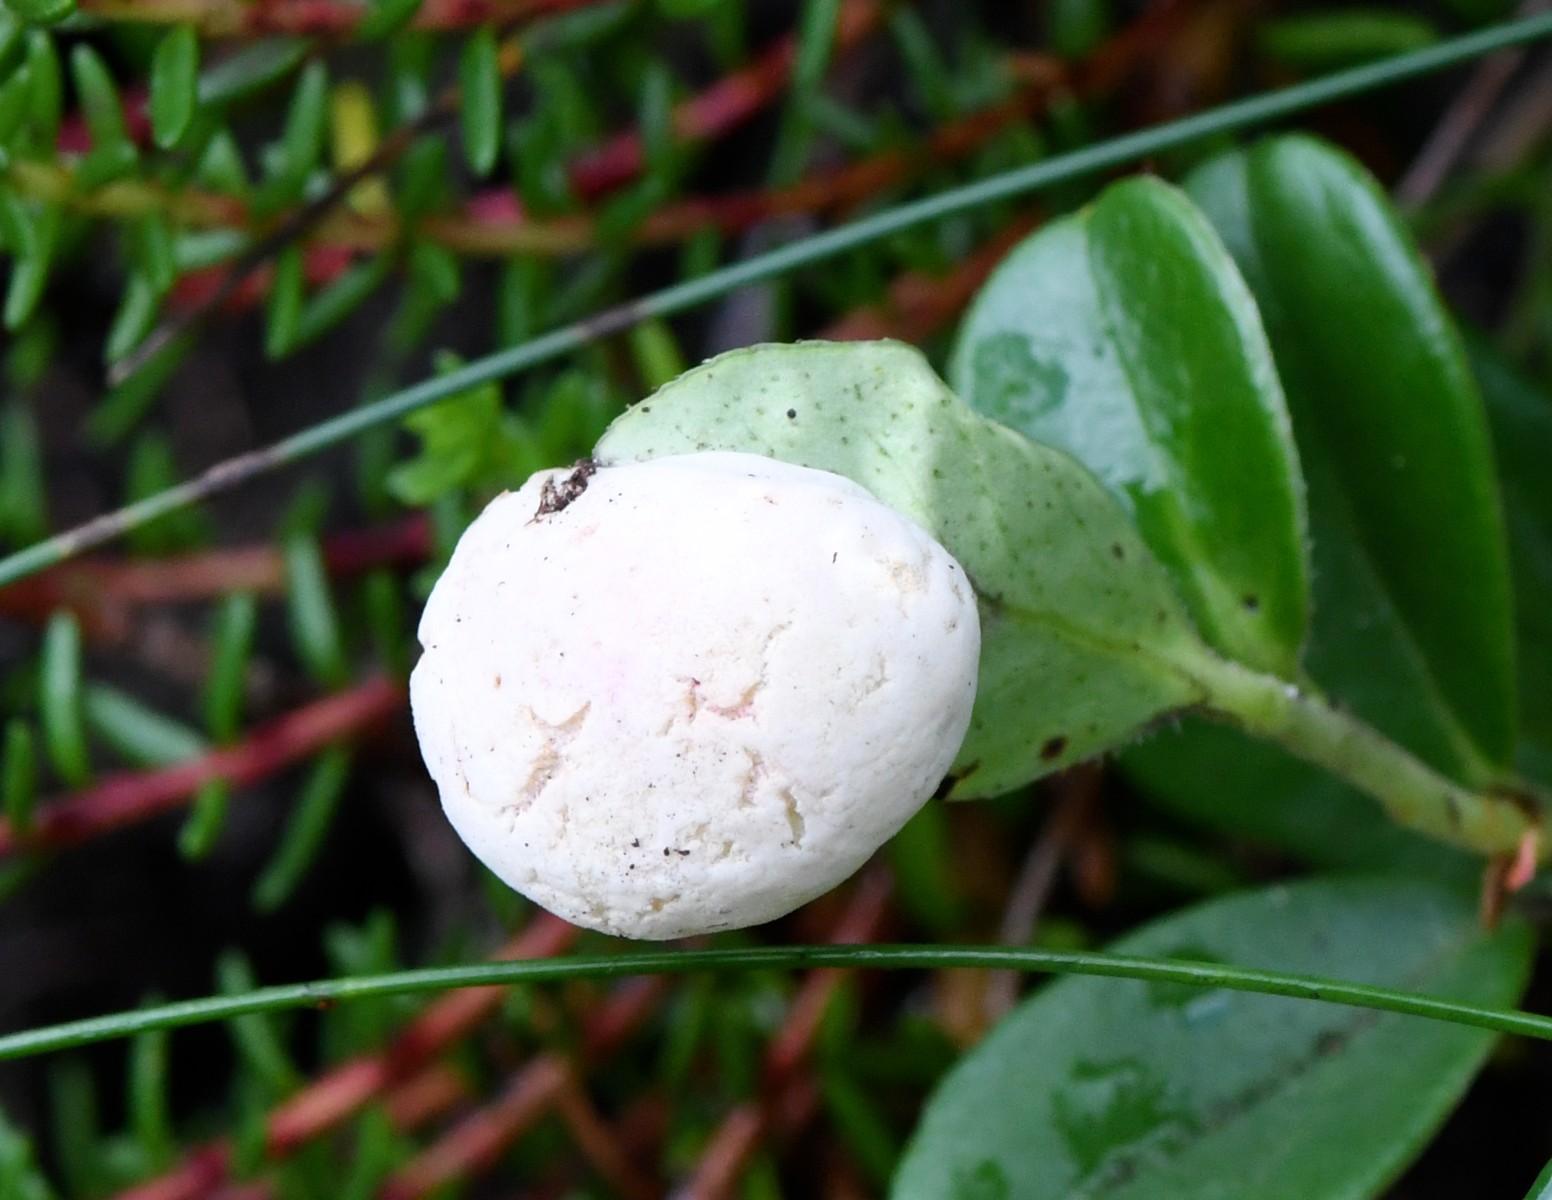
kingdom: Fungi
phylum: Basidiomycota
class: Exobasidiomycetes
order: Exobasidiales
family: Exobasidiaceae
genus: Exobasidium
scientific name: Exobasidium vaccinii
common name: tyttebærblad-bøllesvamp
